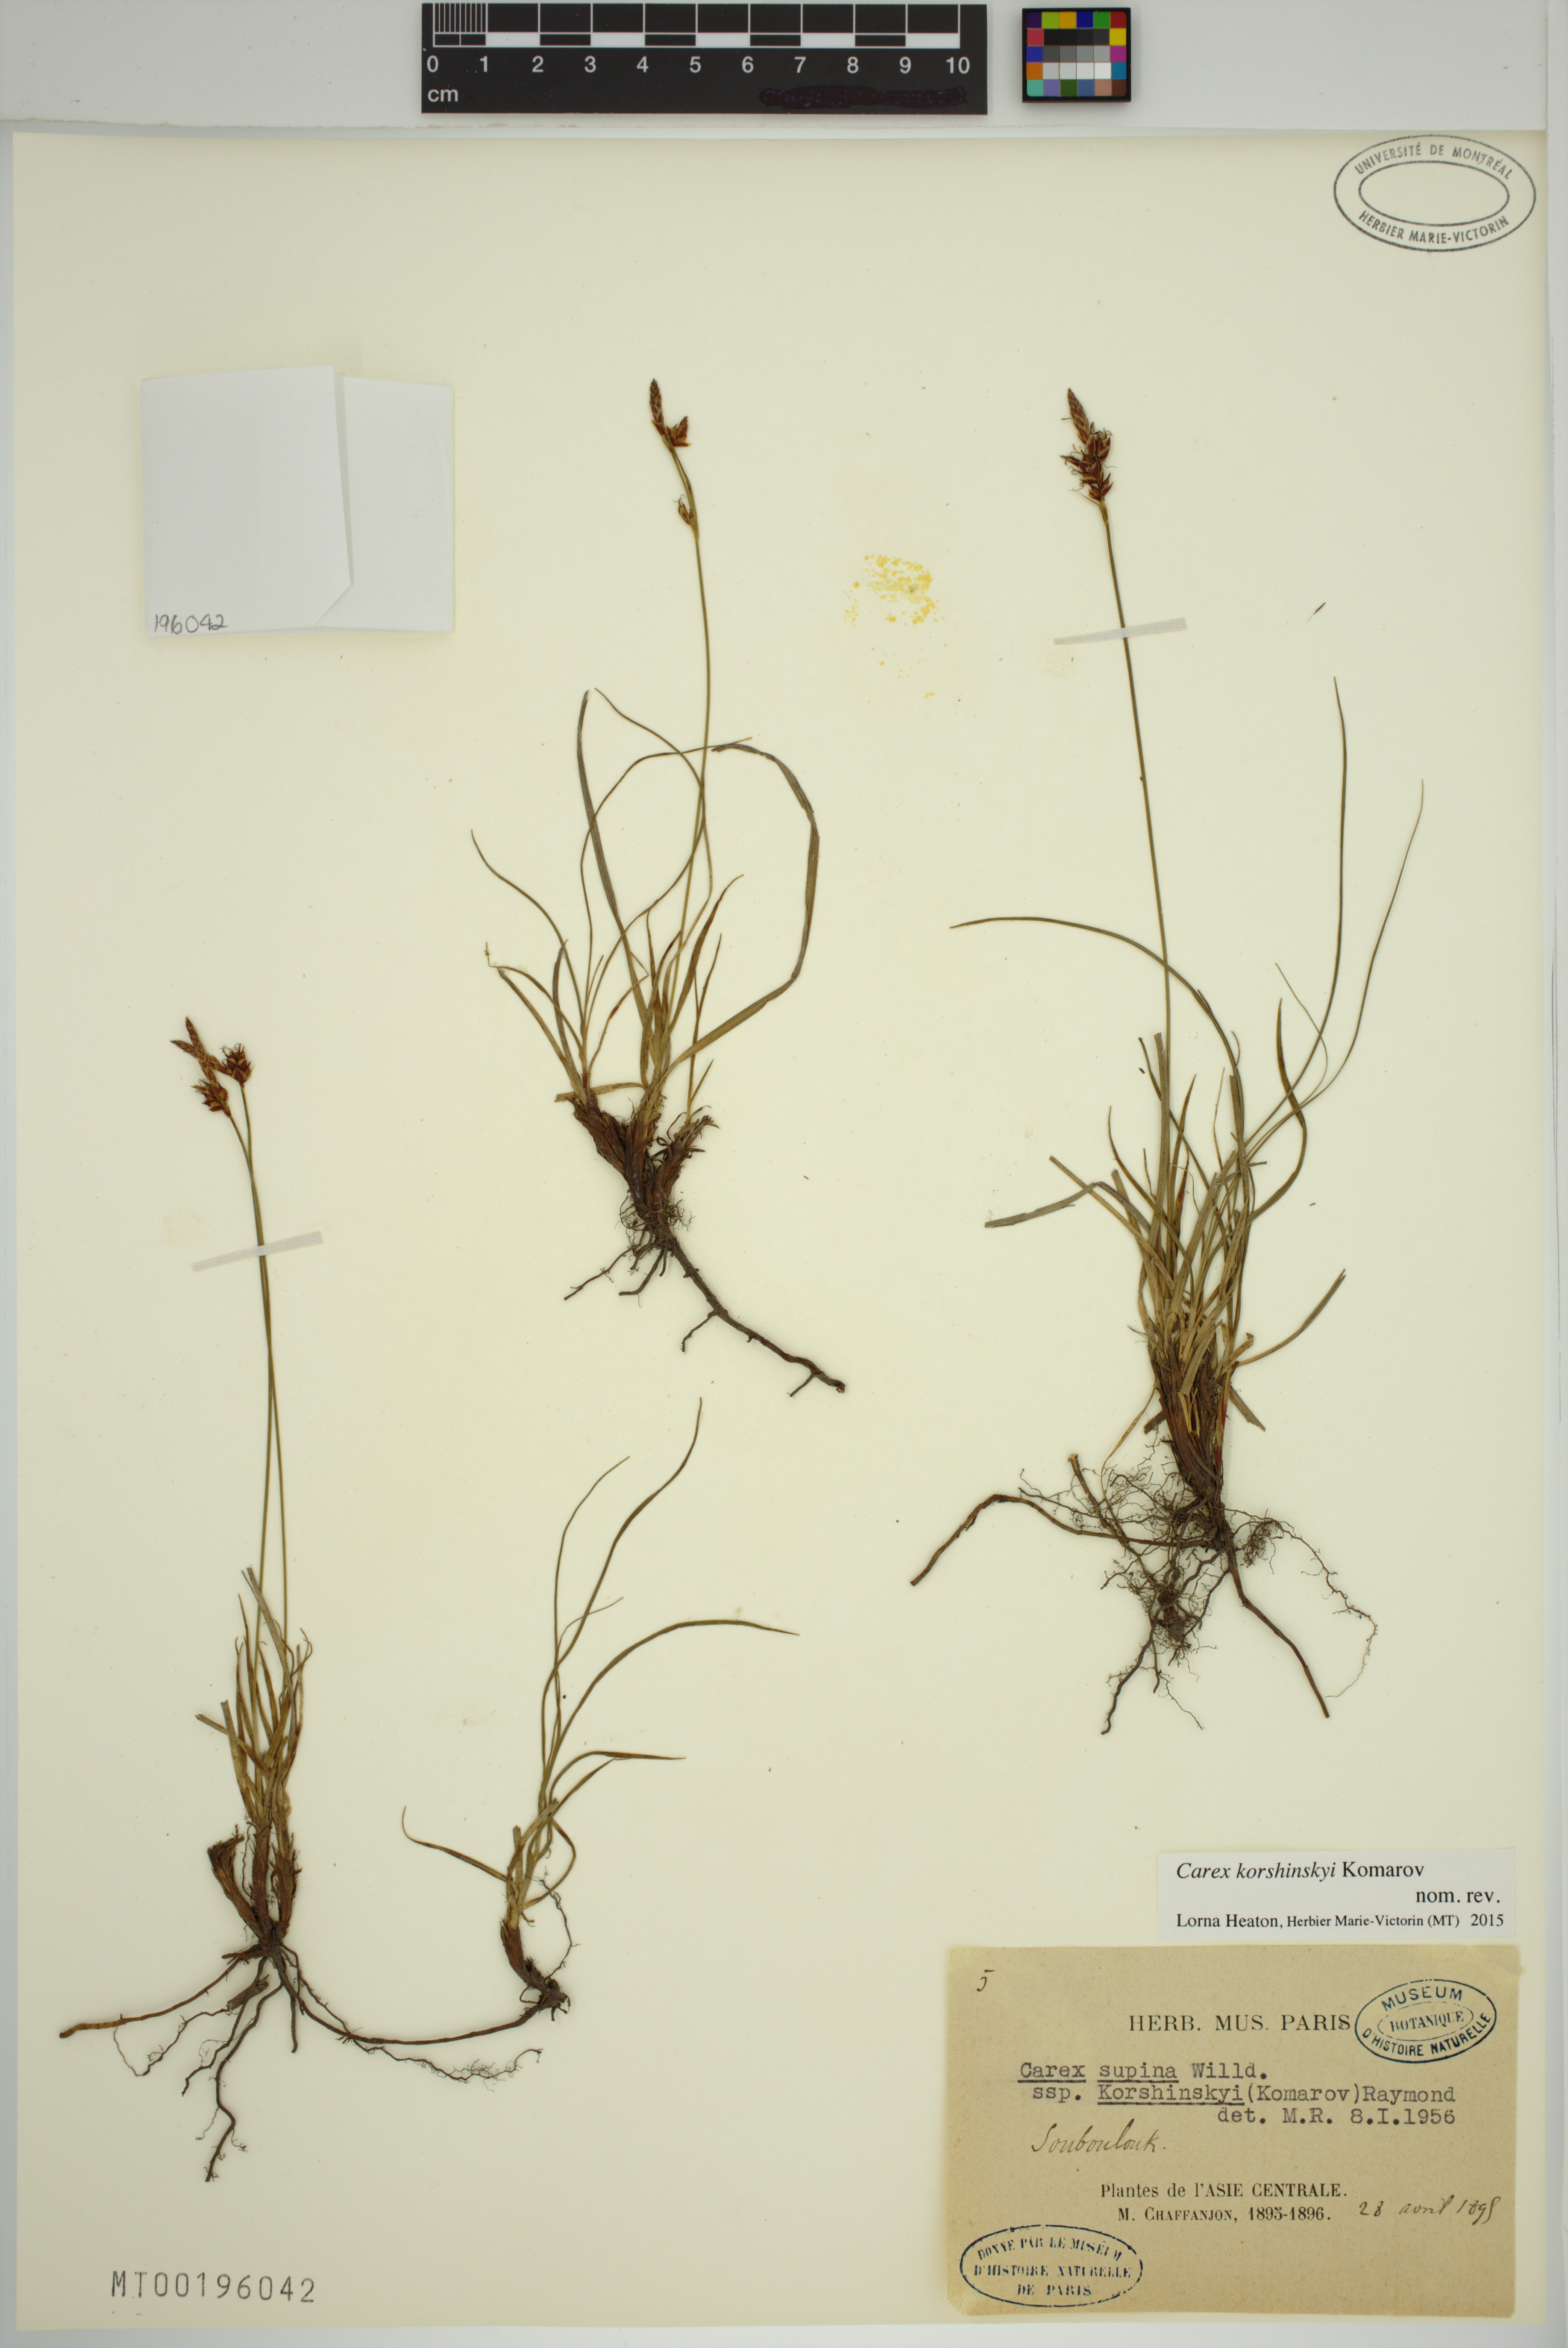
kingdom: Plantae
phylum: Tracheophyta
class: Liliopsida
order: Poales
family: Cyperaceae
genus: Carex
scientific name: Carex korshinskyi
